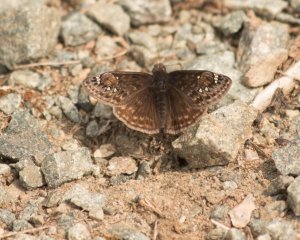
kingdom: Animalia
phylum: Arthropoda
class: Insecta
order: Lepidoptera
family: Hesperiidae
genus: Gesta
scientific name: Gesta
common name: Juvenal's Duskywing
